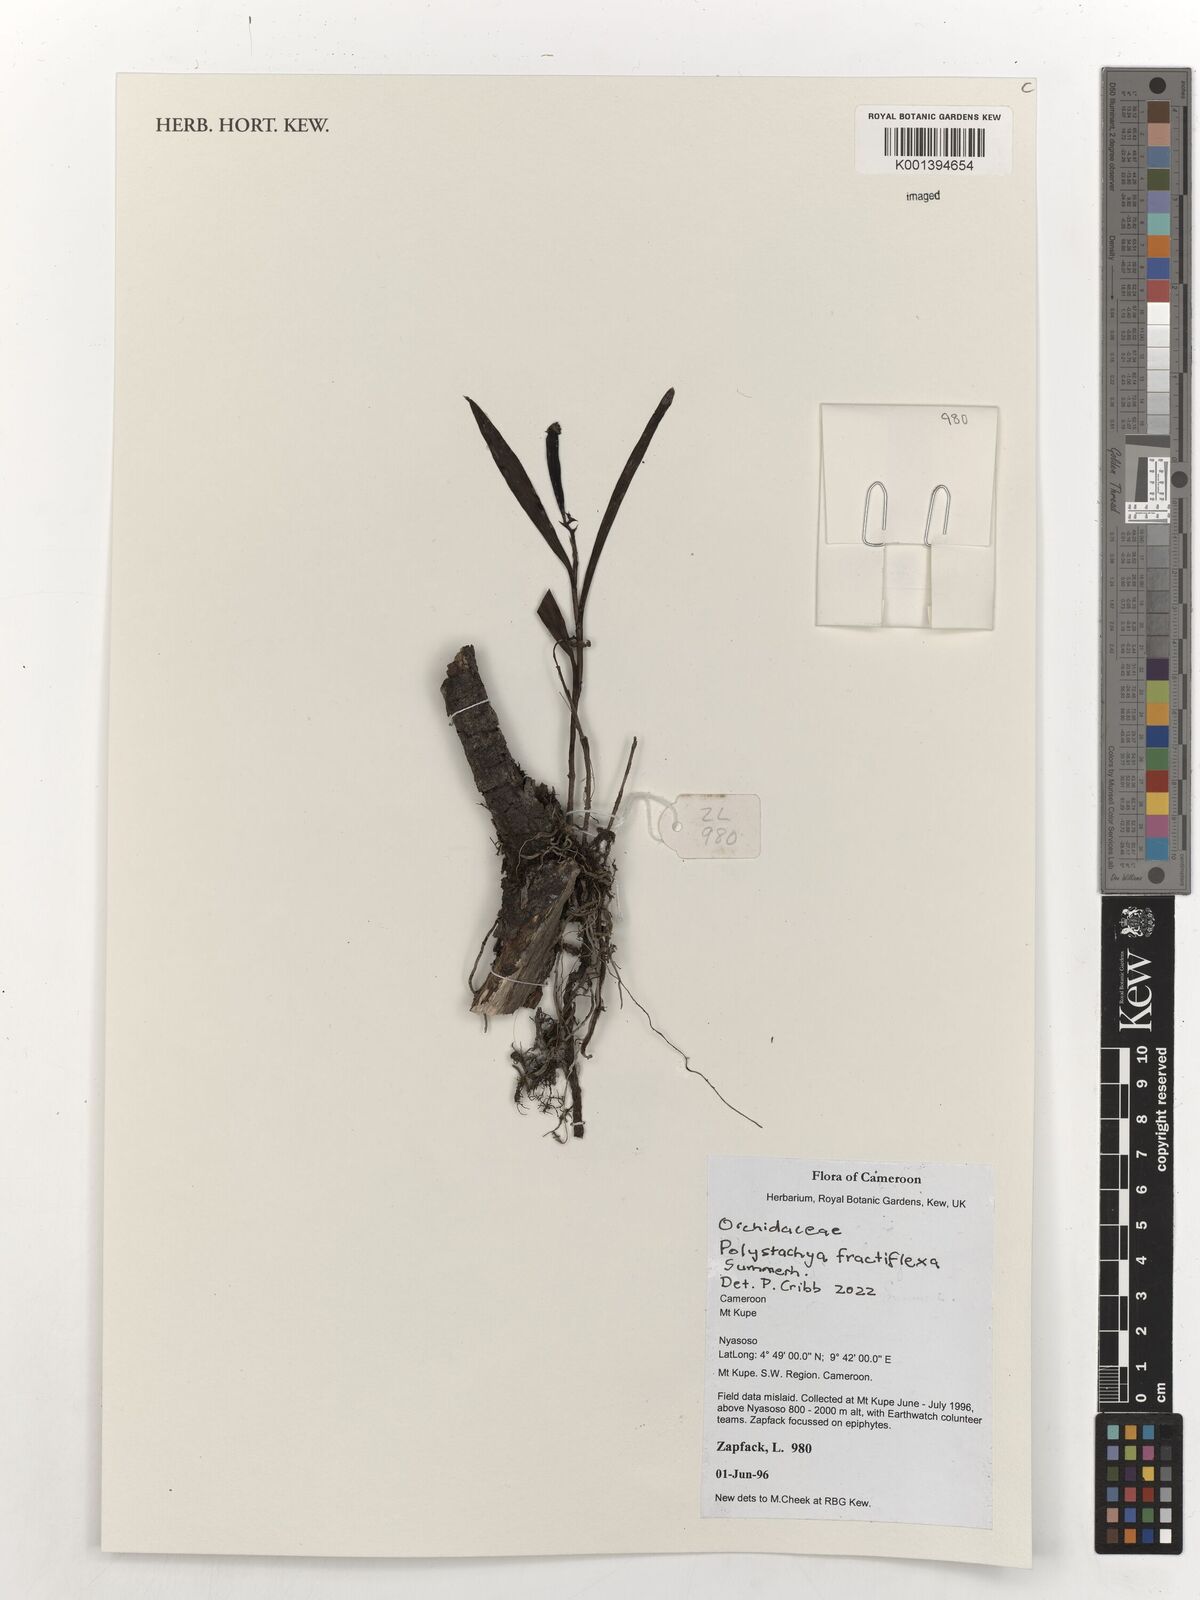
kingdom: Plantae
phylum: Tracheophyta
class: Liliopsida
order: Asparagales
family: Orchidaceae
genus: Polystachya
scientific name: Polystachya fractiflexa
